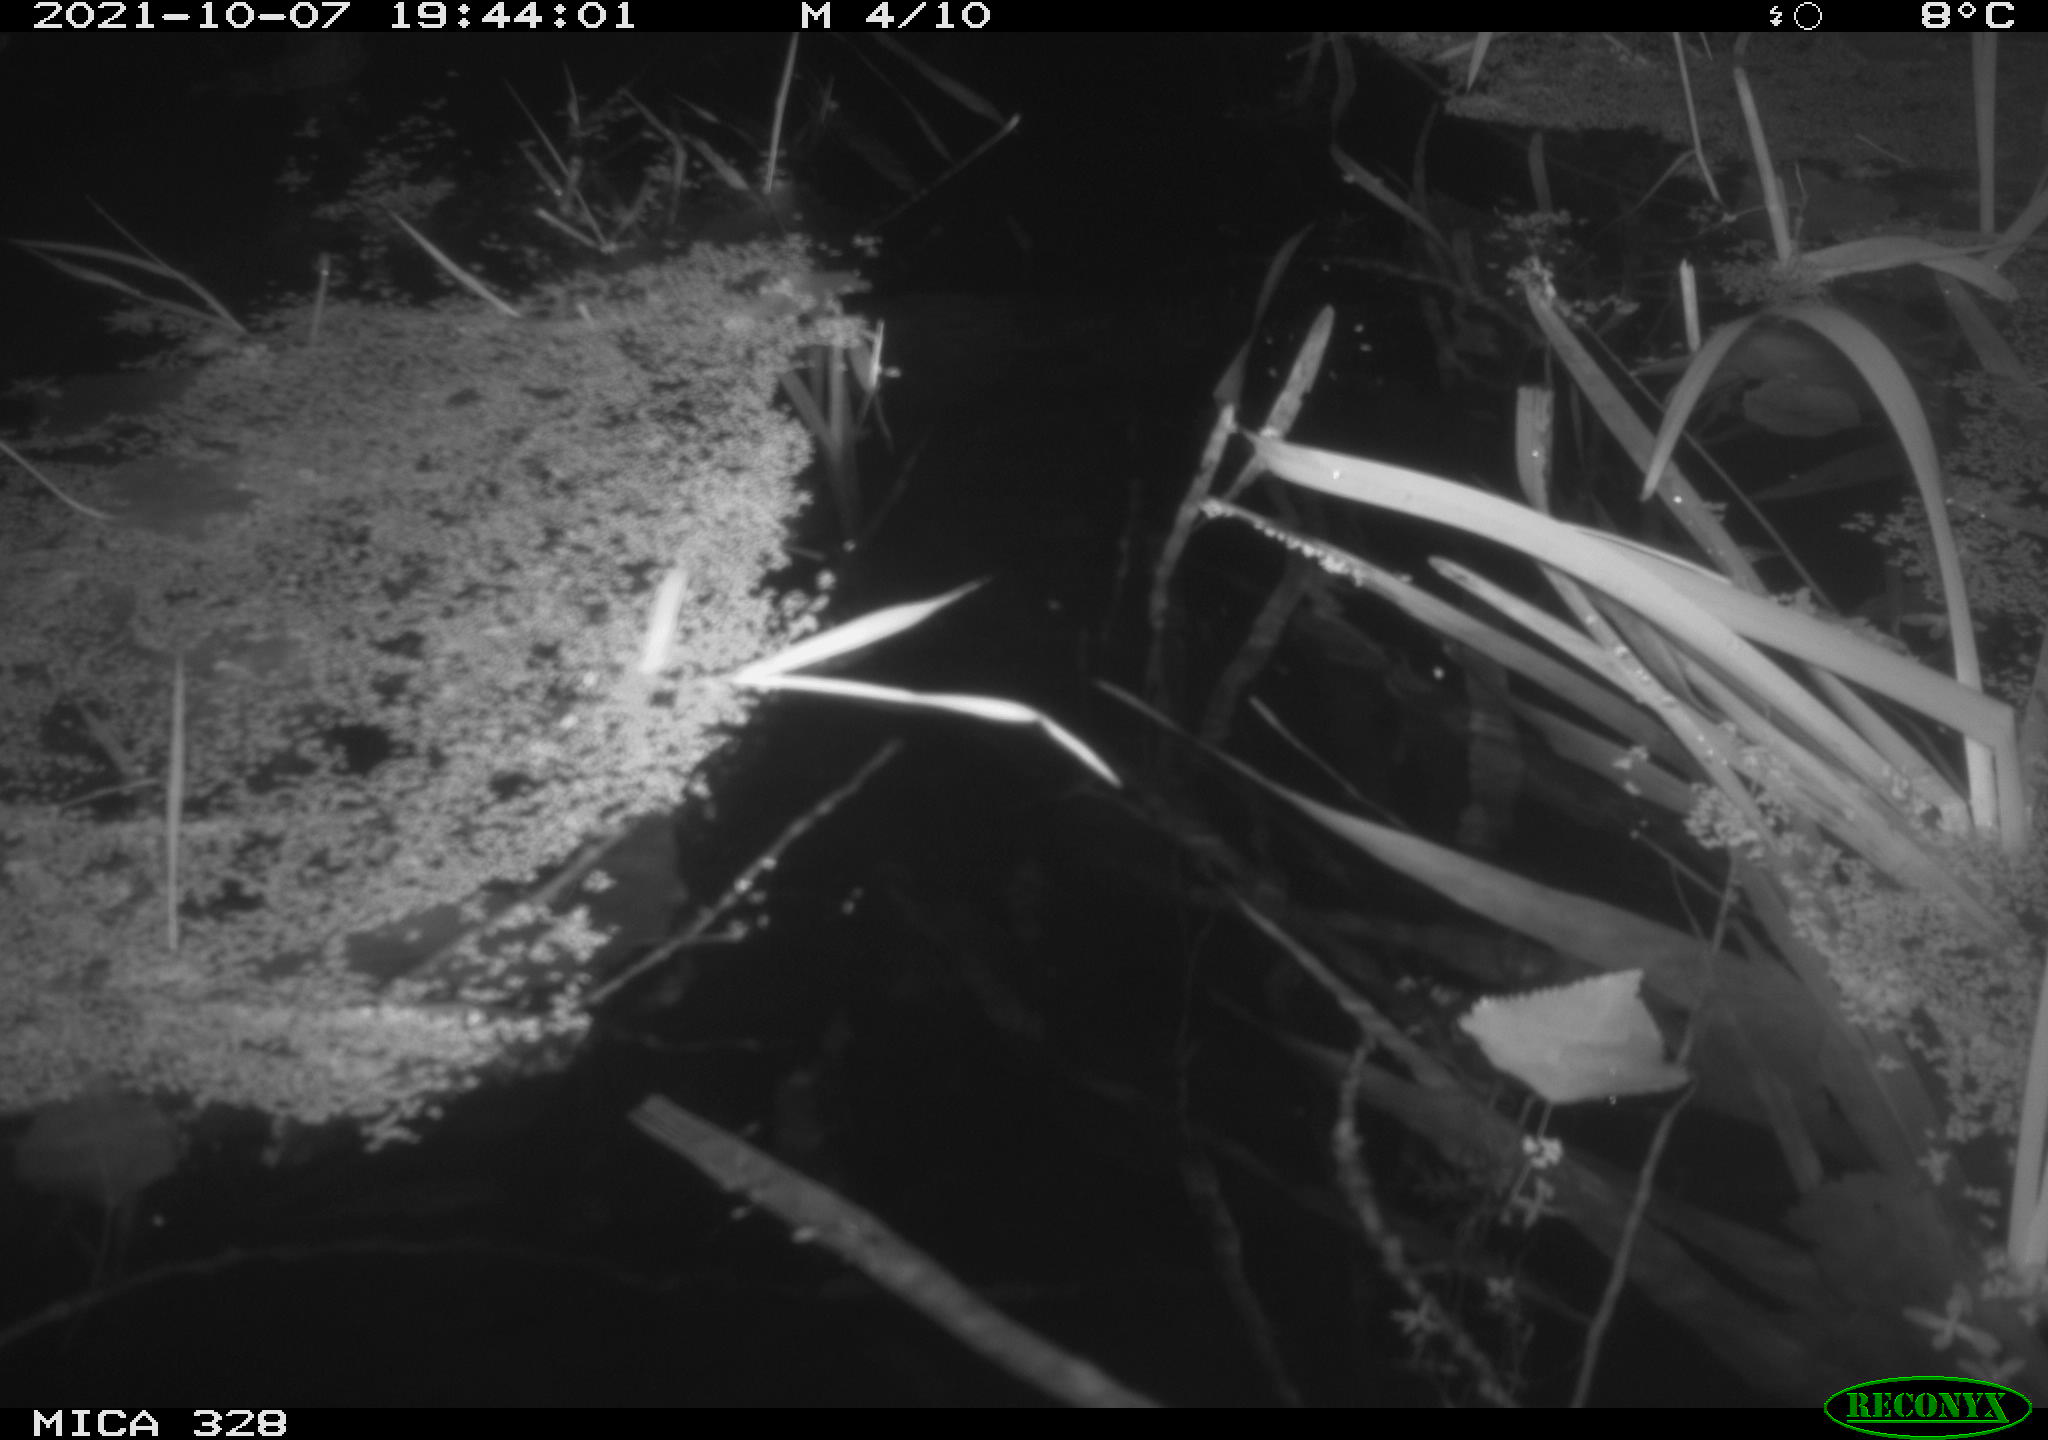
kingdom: Animalia
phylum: Chordata
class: Mammalia
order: Rodentia
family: Cricetidae
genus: Ondatra
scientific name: Ondatra zibethicus
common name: Muskrat
